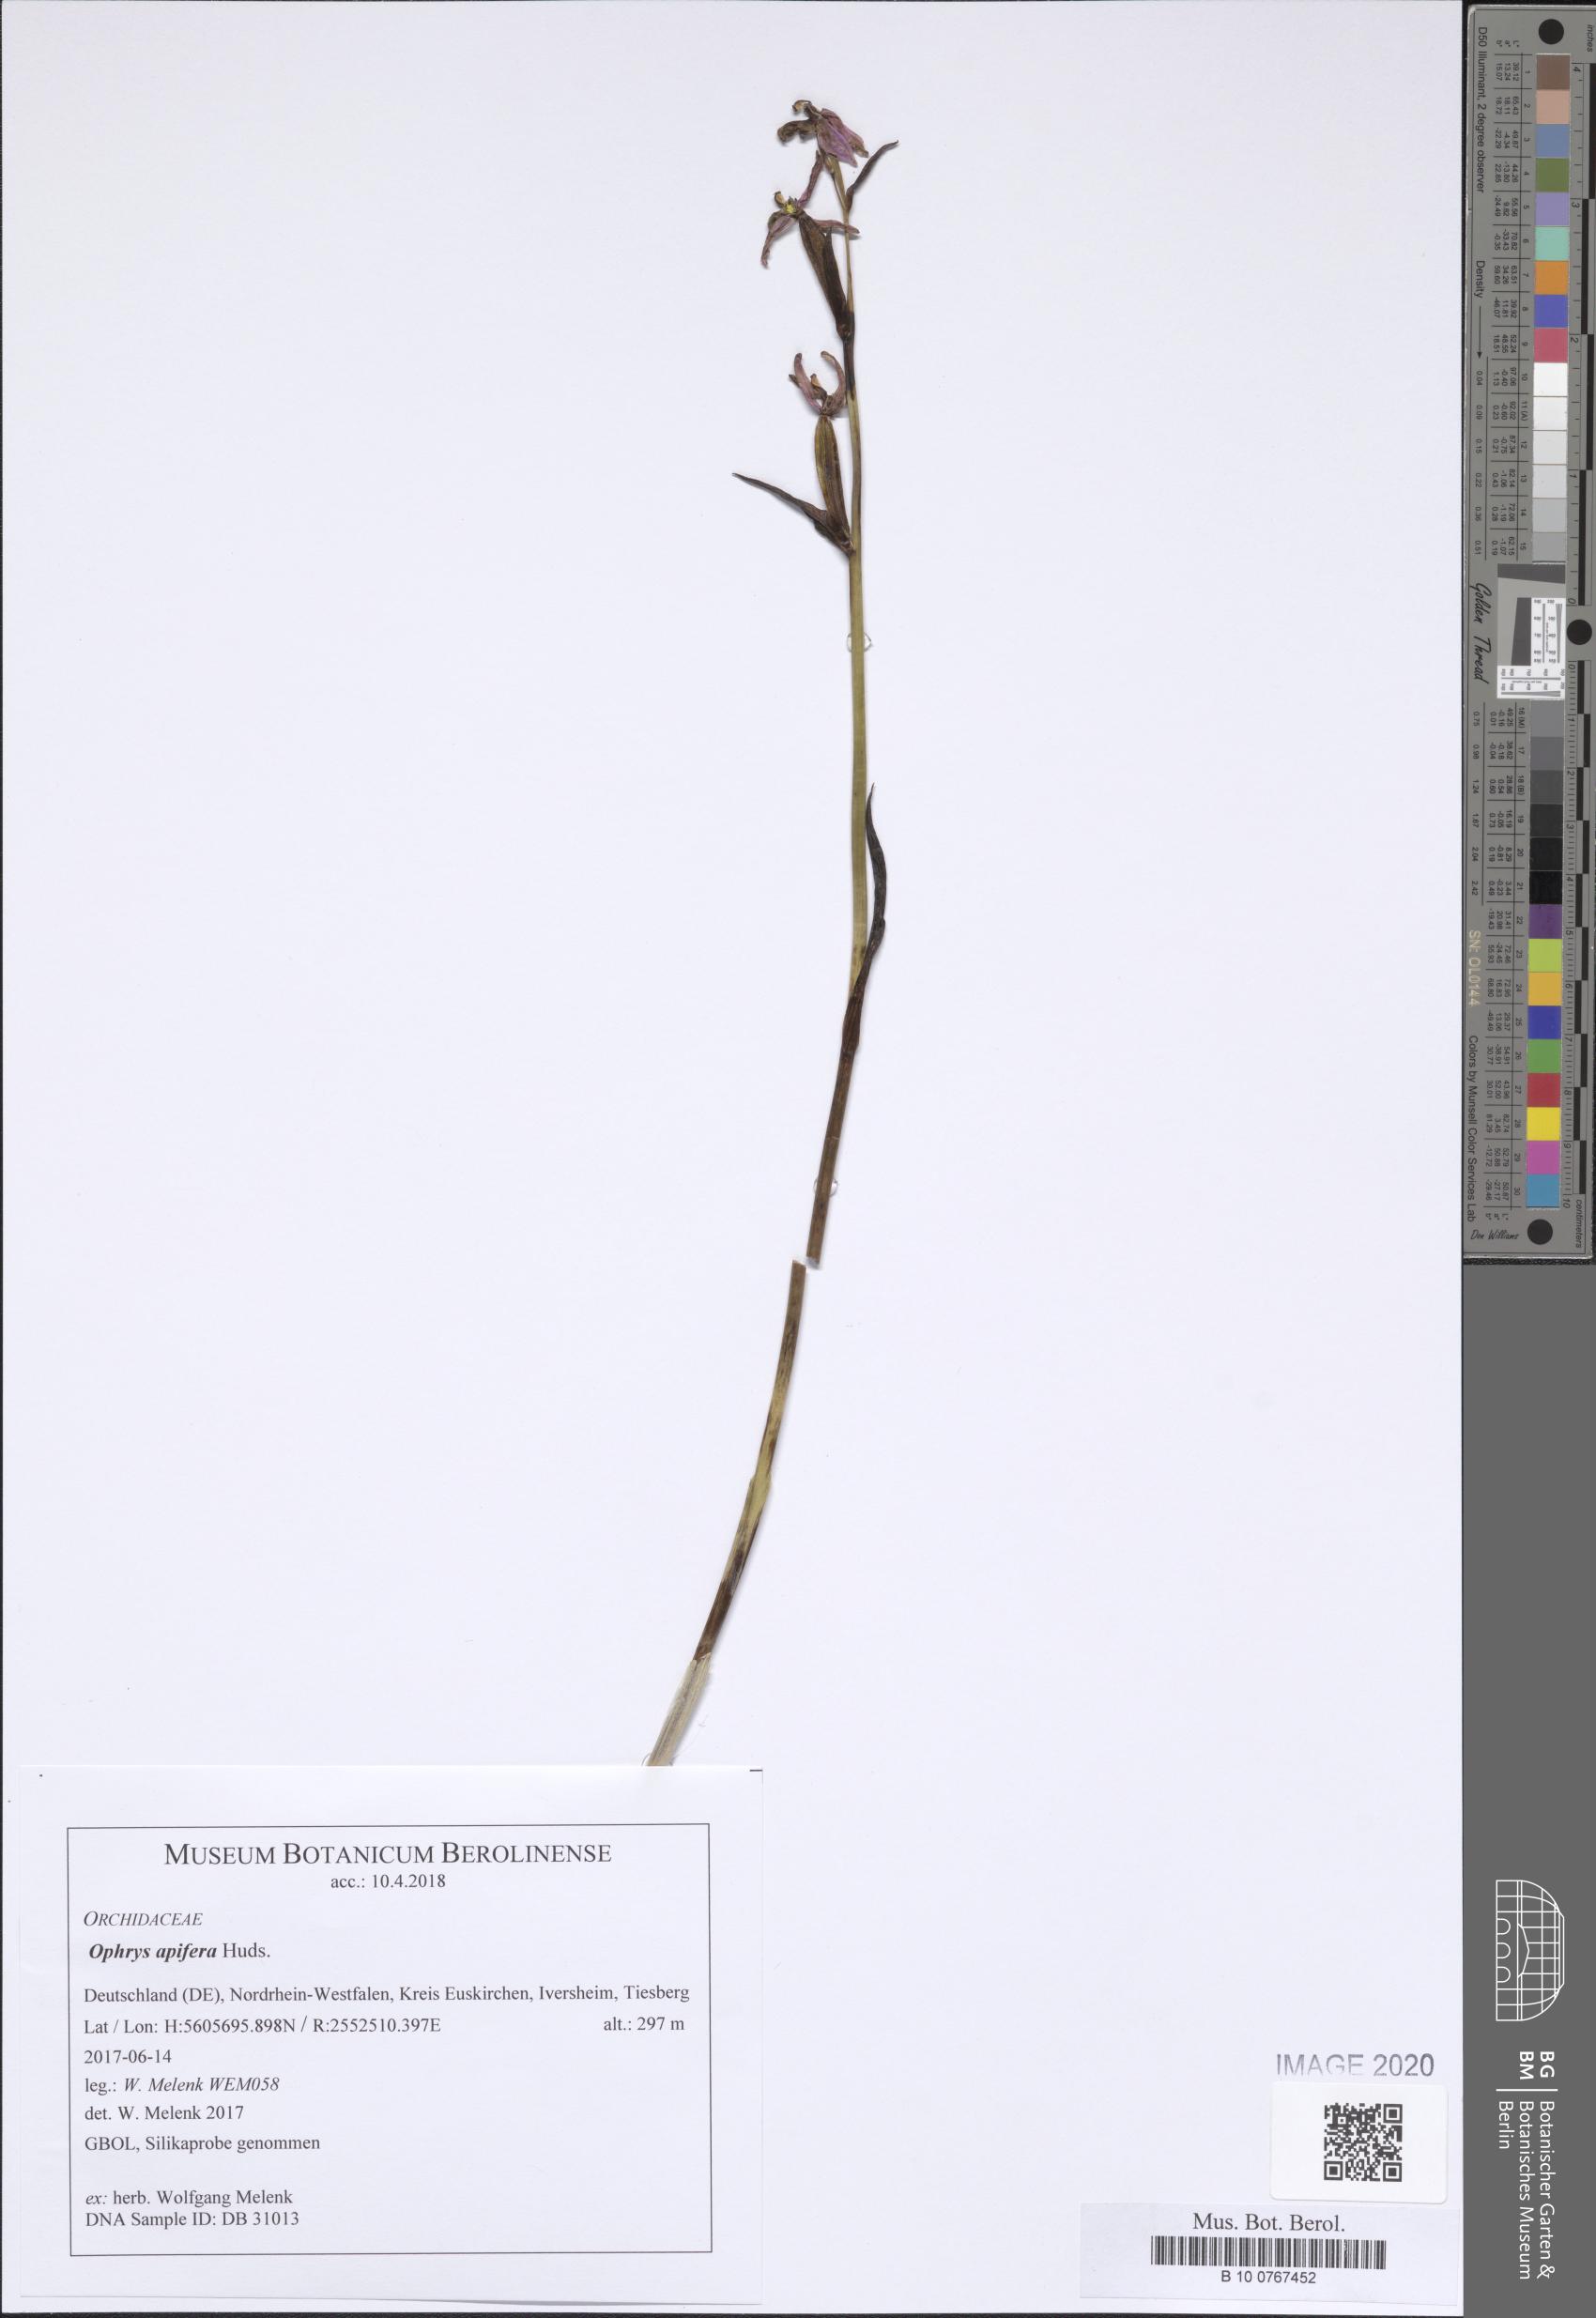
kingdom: Plantae
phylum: Tracheophyta
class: Liliopsida
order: Asparagales
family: Orchidaceae
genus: Ophrys
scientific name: Ophrys apifera
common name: Bee orchid
